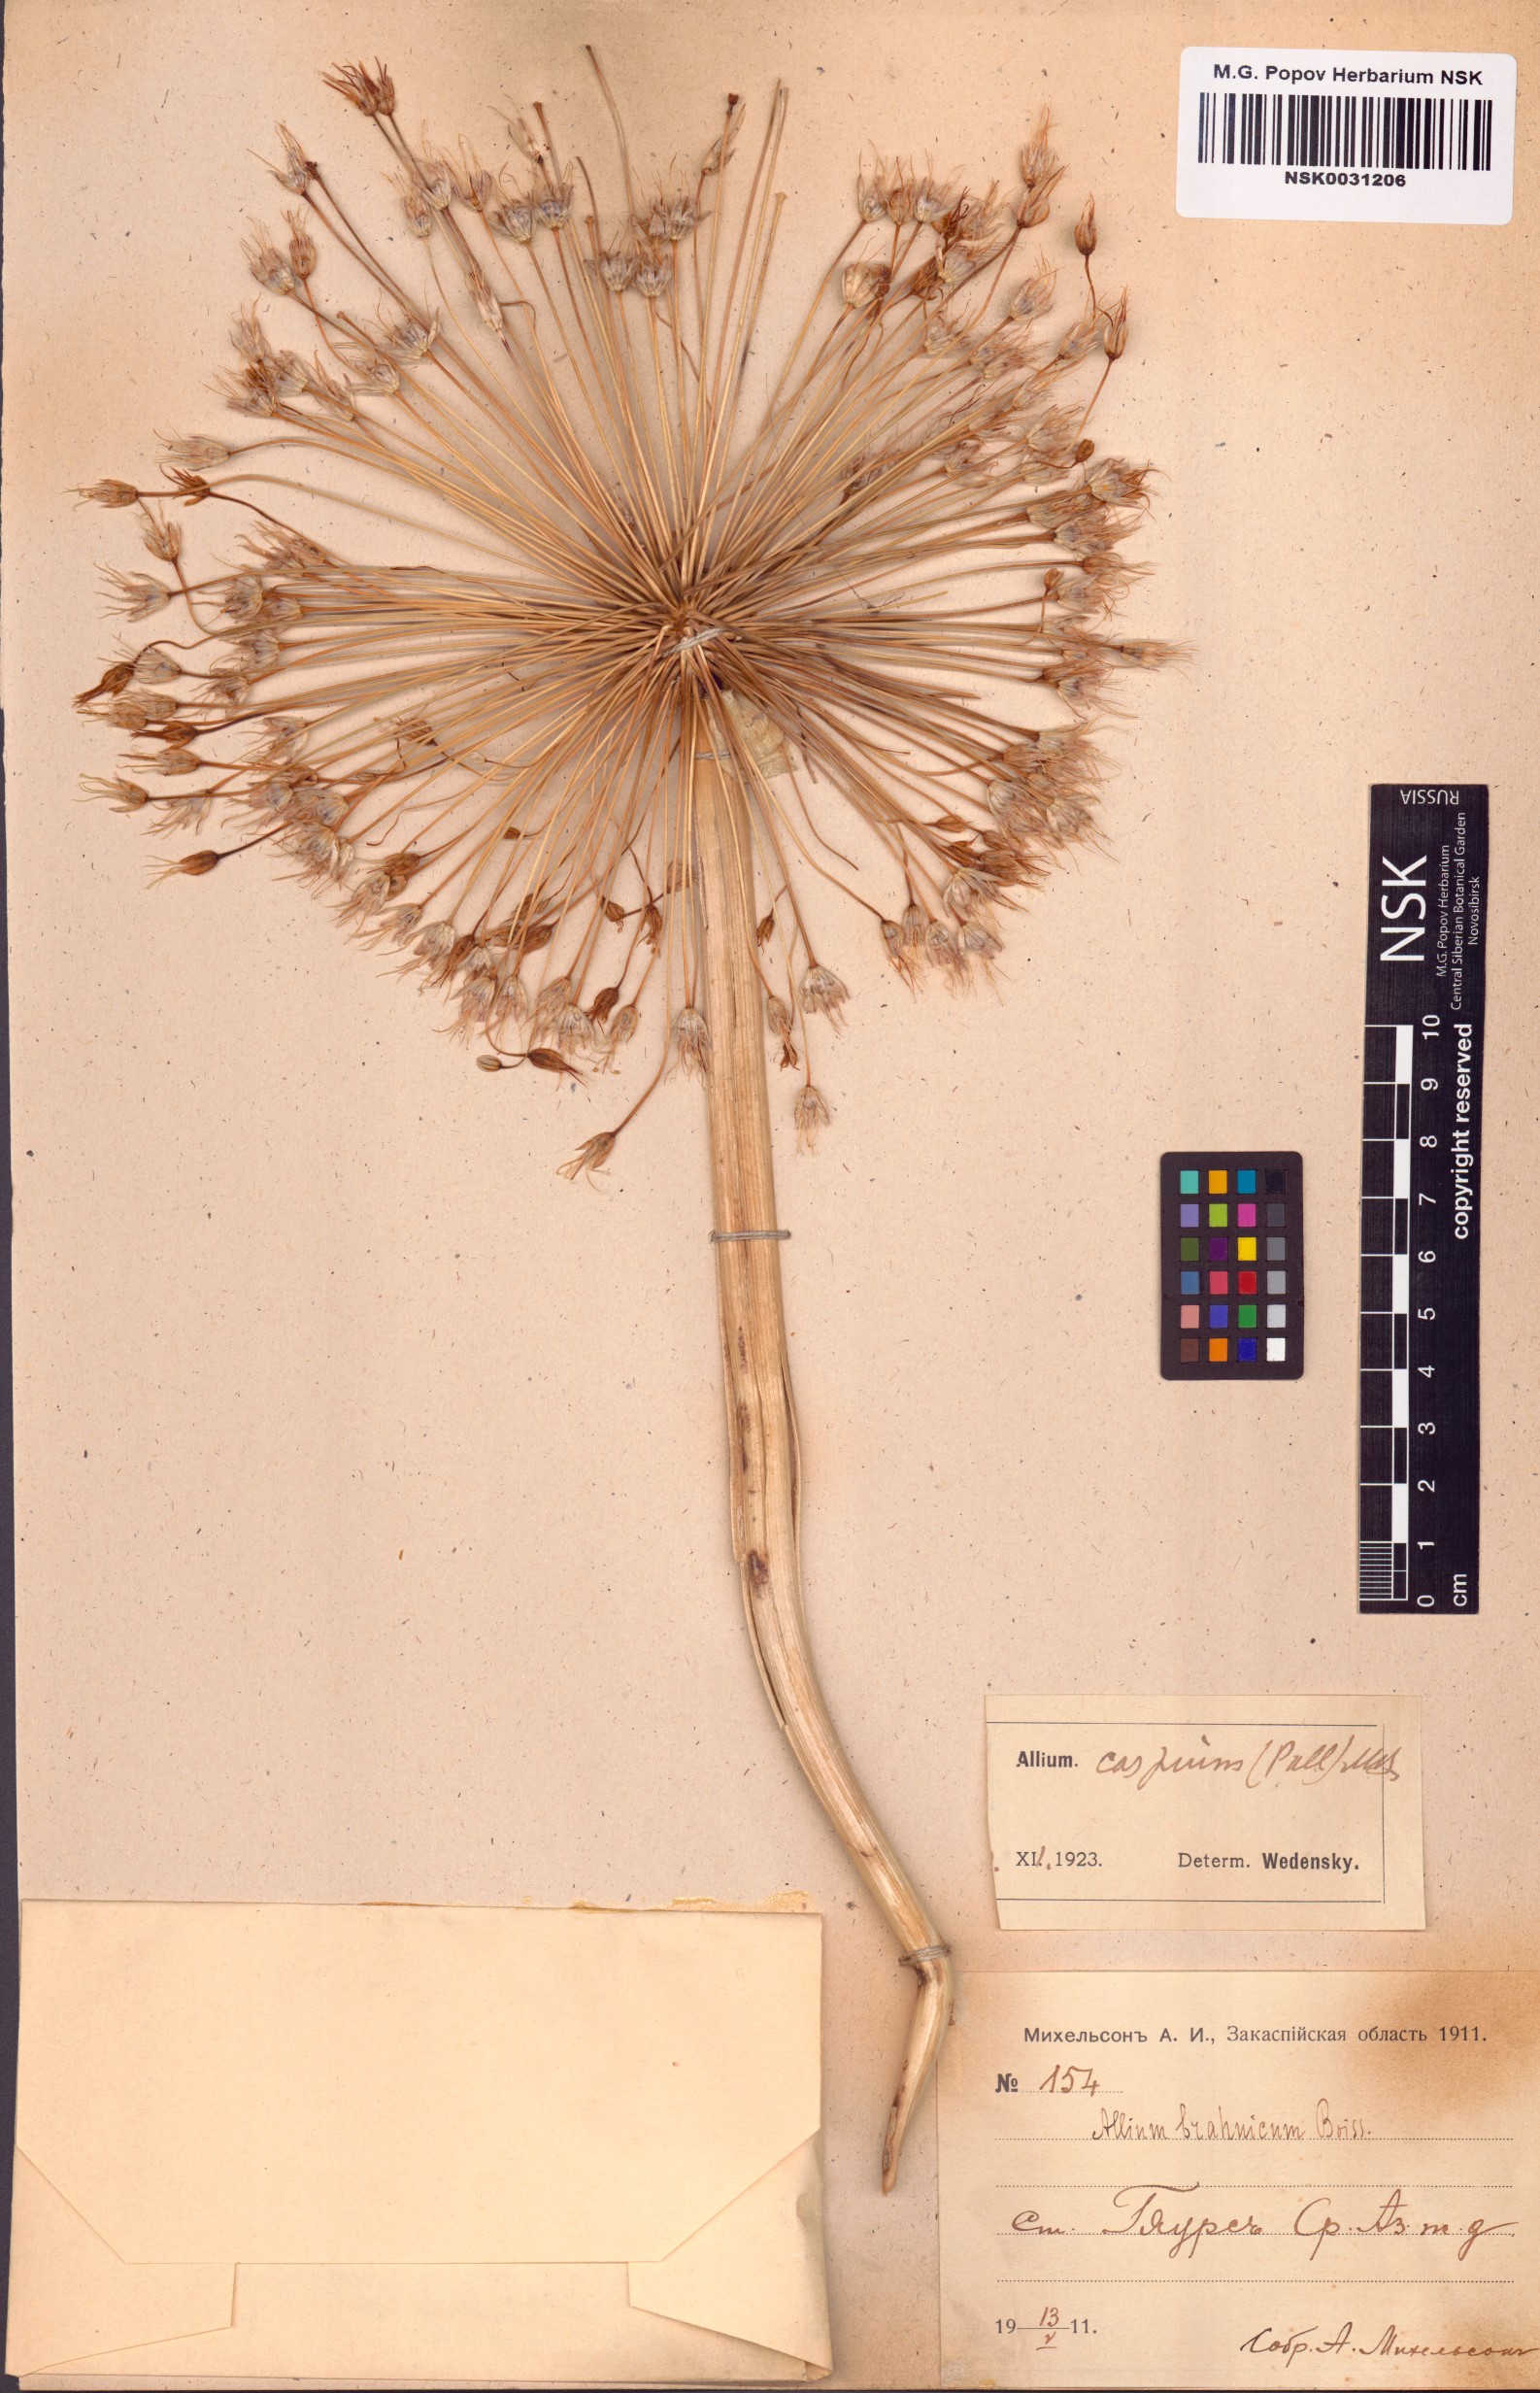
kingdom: Plantae
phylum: Tracheophyta
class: Liliopsida
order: Asparagales
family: Amaryllidaceae
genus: Allium
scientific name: Allium caspium
